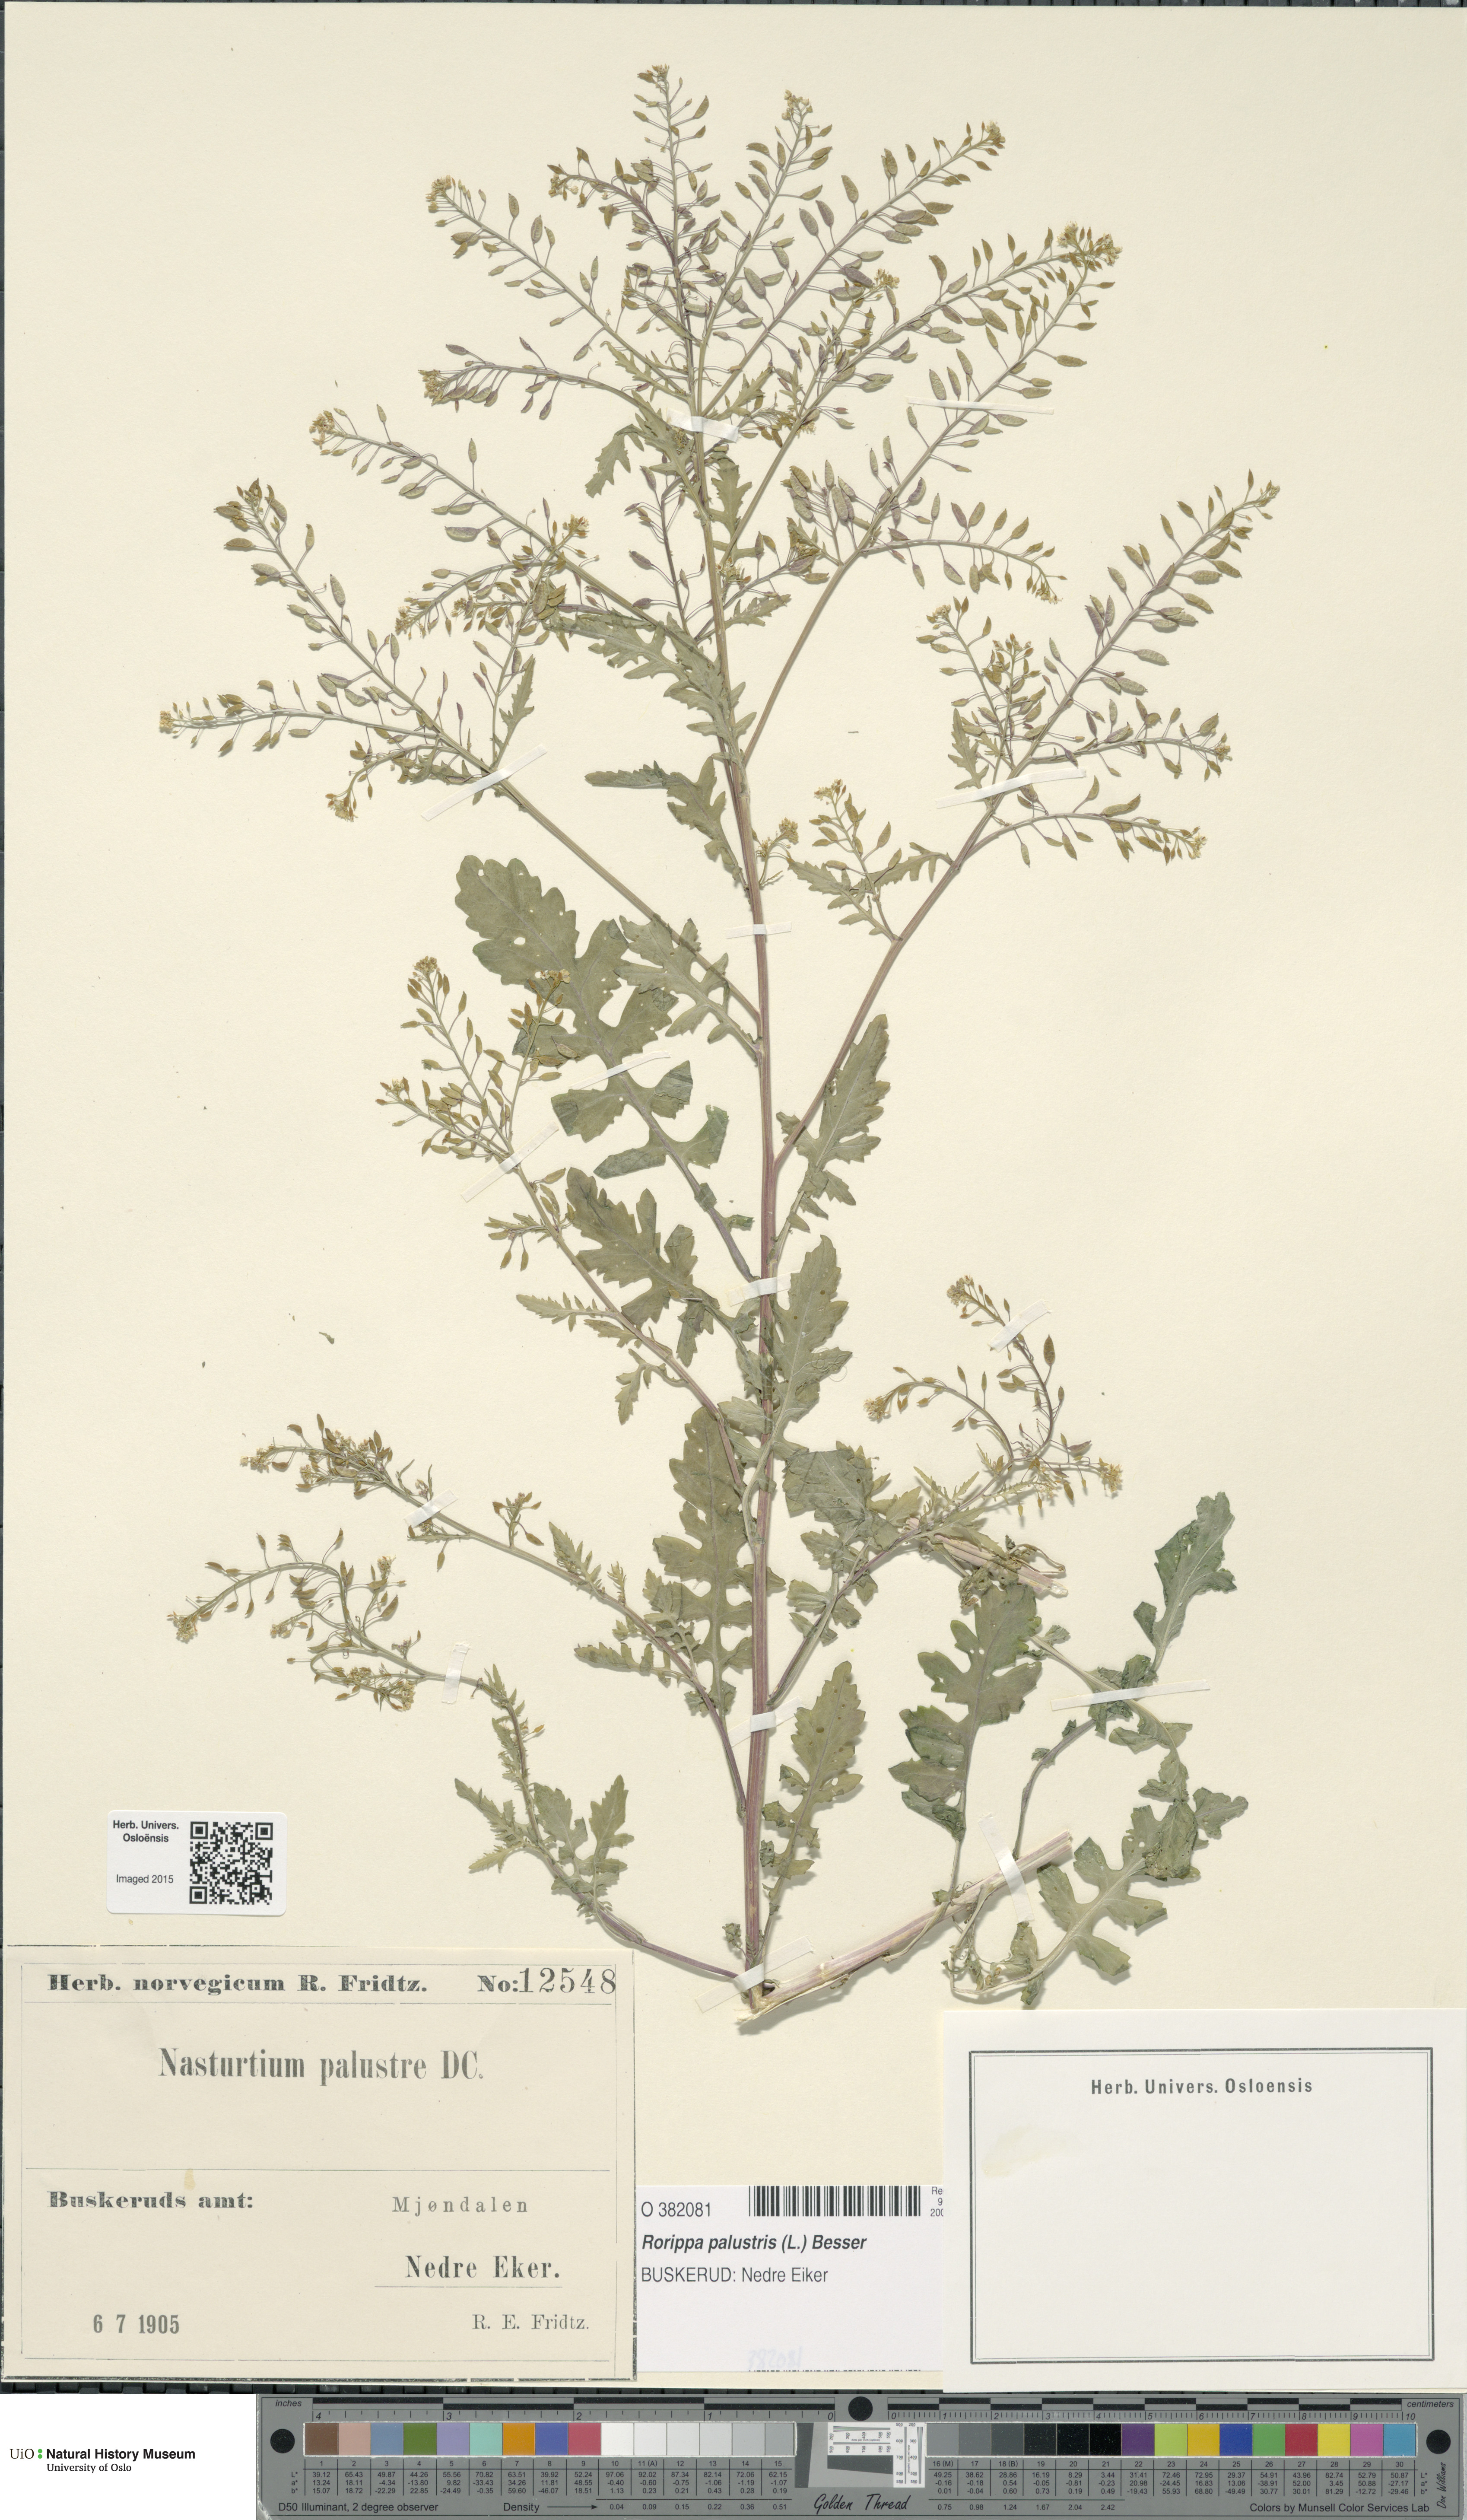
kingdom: Plantae
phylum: Tracheophyta
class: Magnoliopsida
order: Brassicales
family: Brassicaceae
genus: Rorippa
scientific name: Rorippa palustris
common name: Marsh yellow-cress
